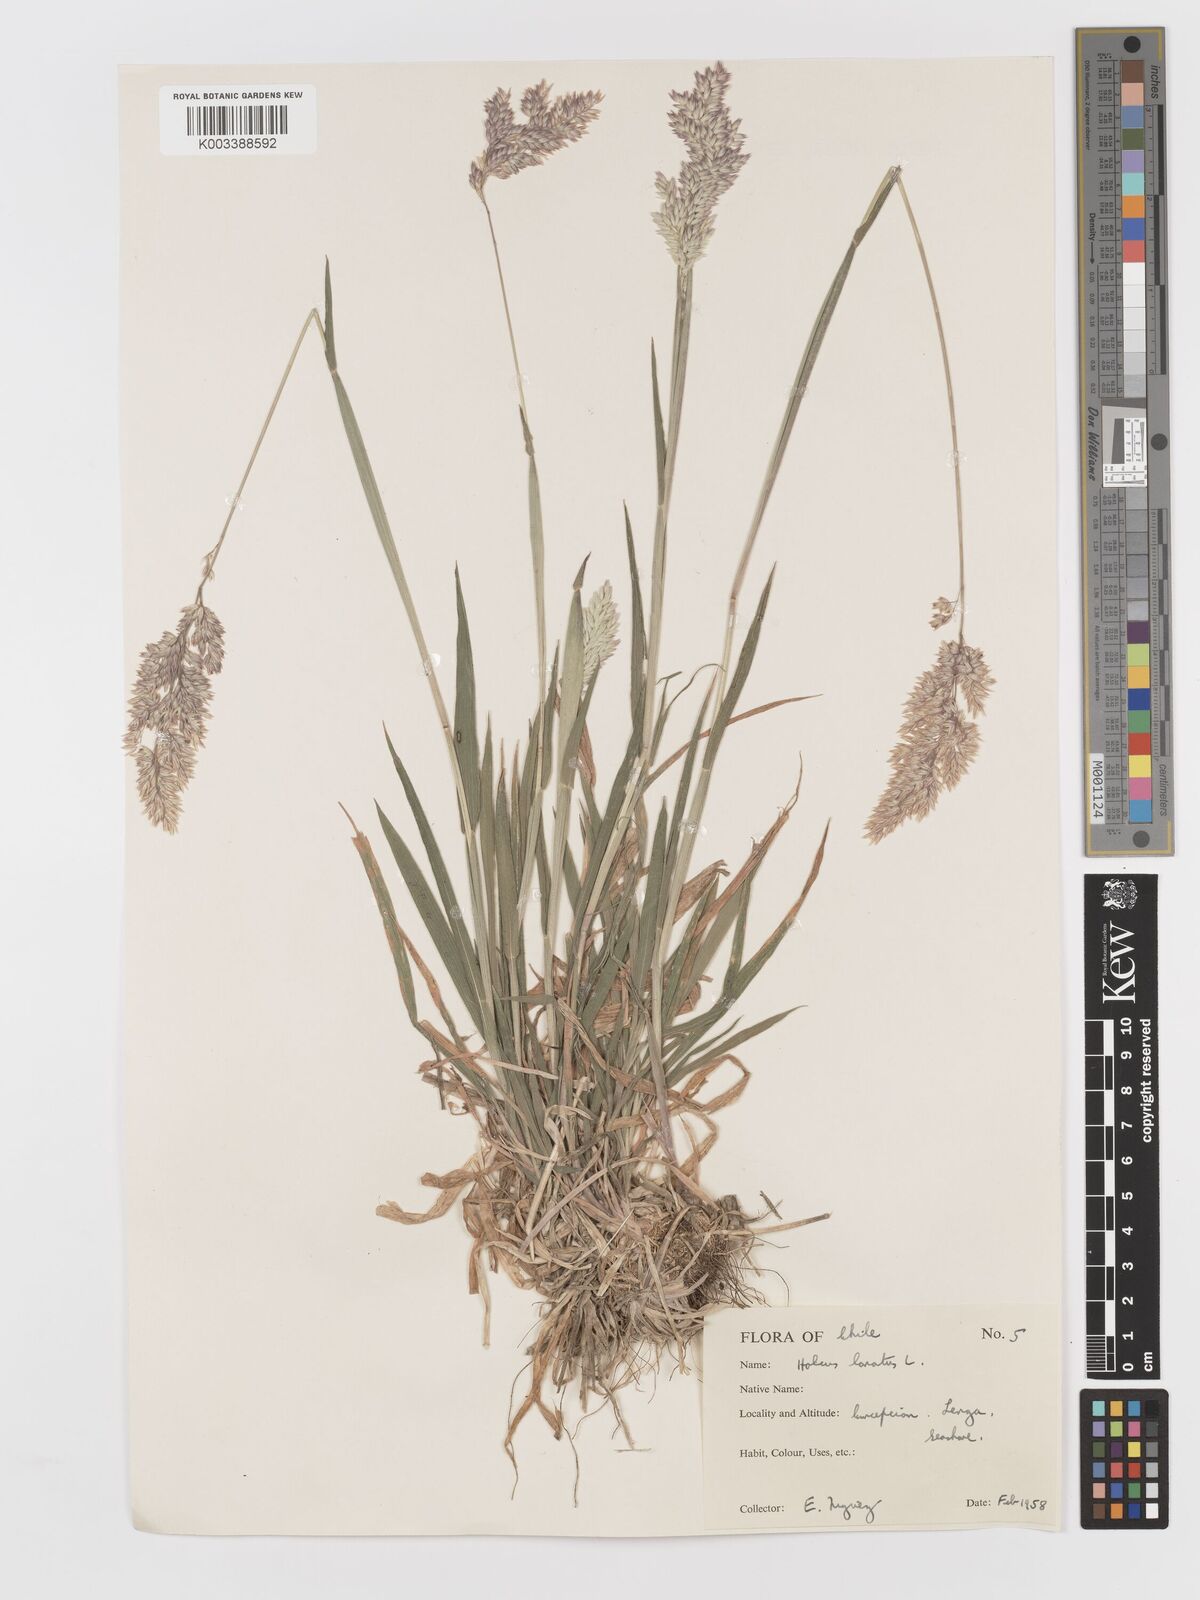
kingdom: Plantae
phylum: Tracheophyta
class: Liliopsida
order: Poales
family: Poaceae
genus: Holcus
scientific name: Holcus lanatus
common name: Yorkshire-fog
